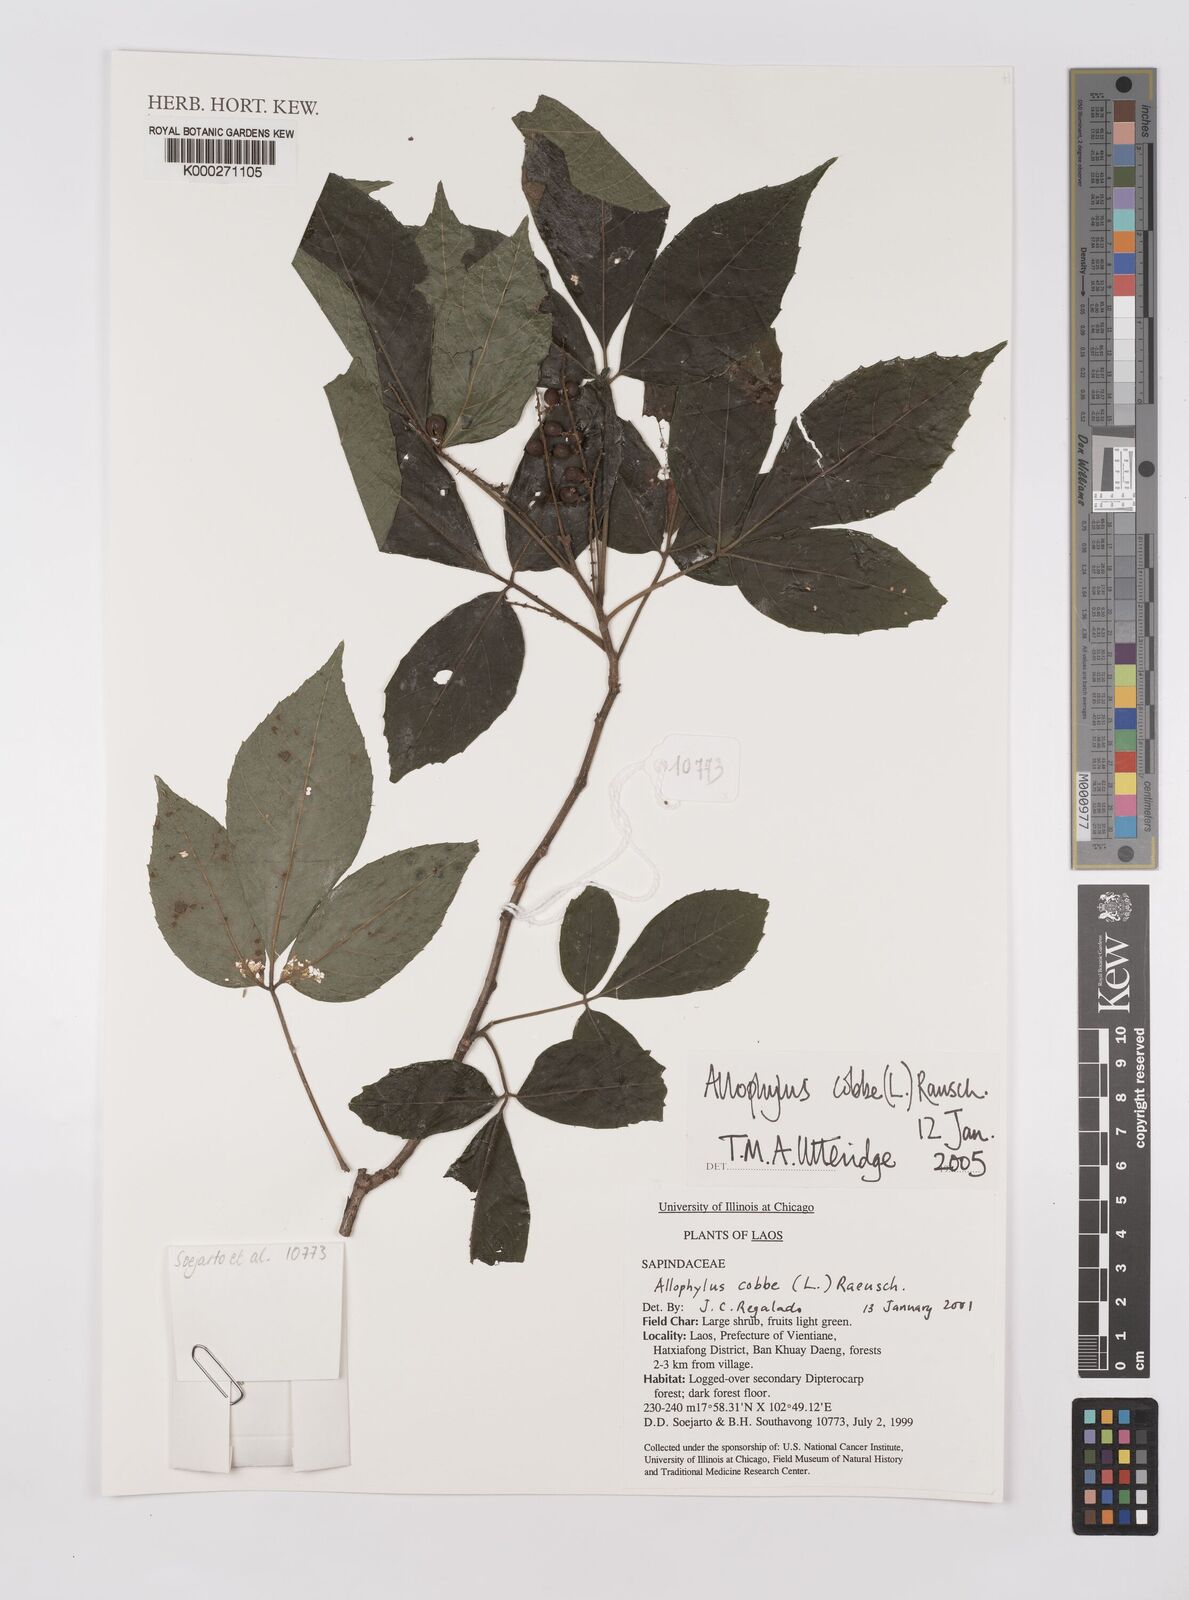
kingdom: Plantae
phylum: Tracheophyta
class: Magnoliopsida
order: Sapindales
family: Sapindaceae
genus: Allophylus
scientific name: Allophylus
